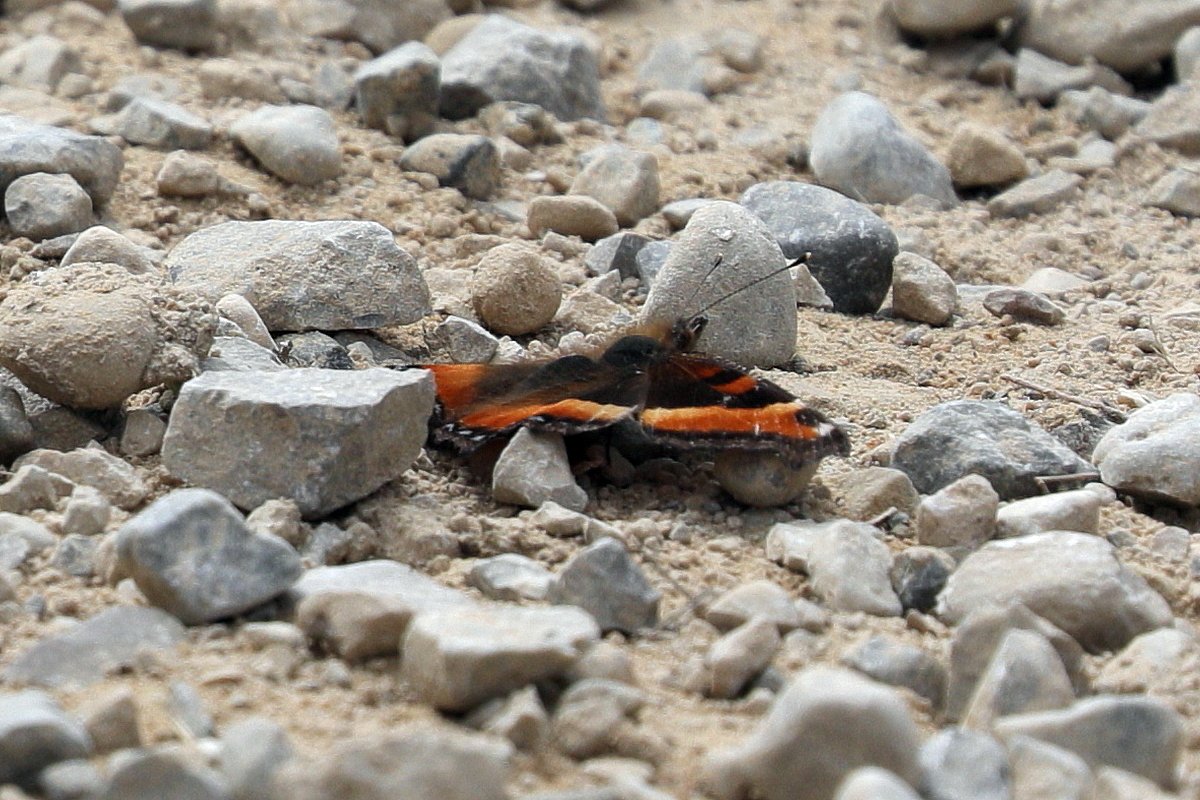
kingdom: Animalia
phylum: Arthropoda
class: Insecta
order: Lepidoptera
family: Nymphalidae
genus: Aglais
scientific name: Aglais milberti
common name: Milbert's Tortoiseshell
